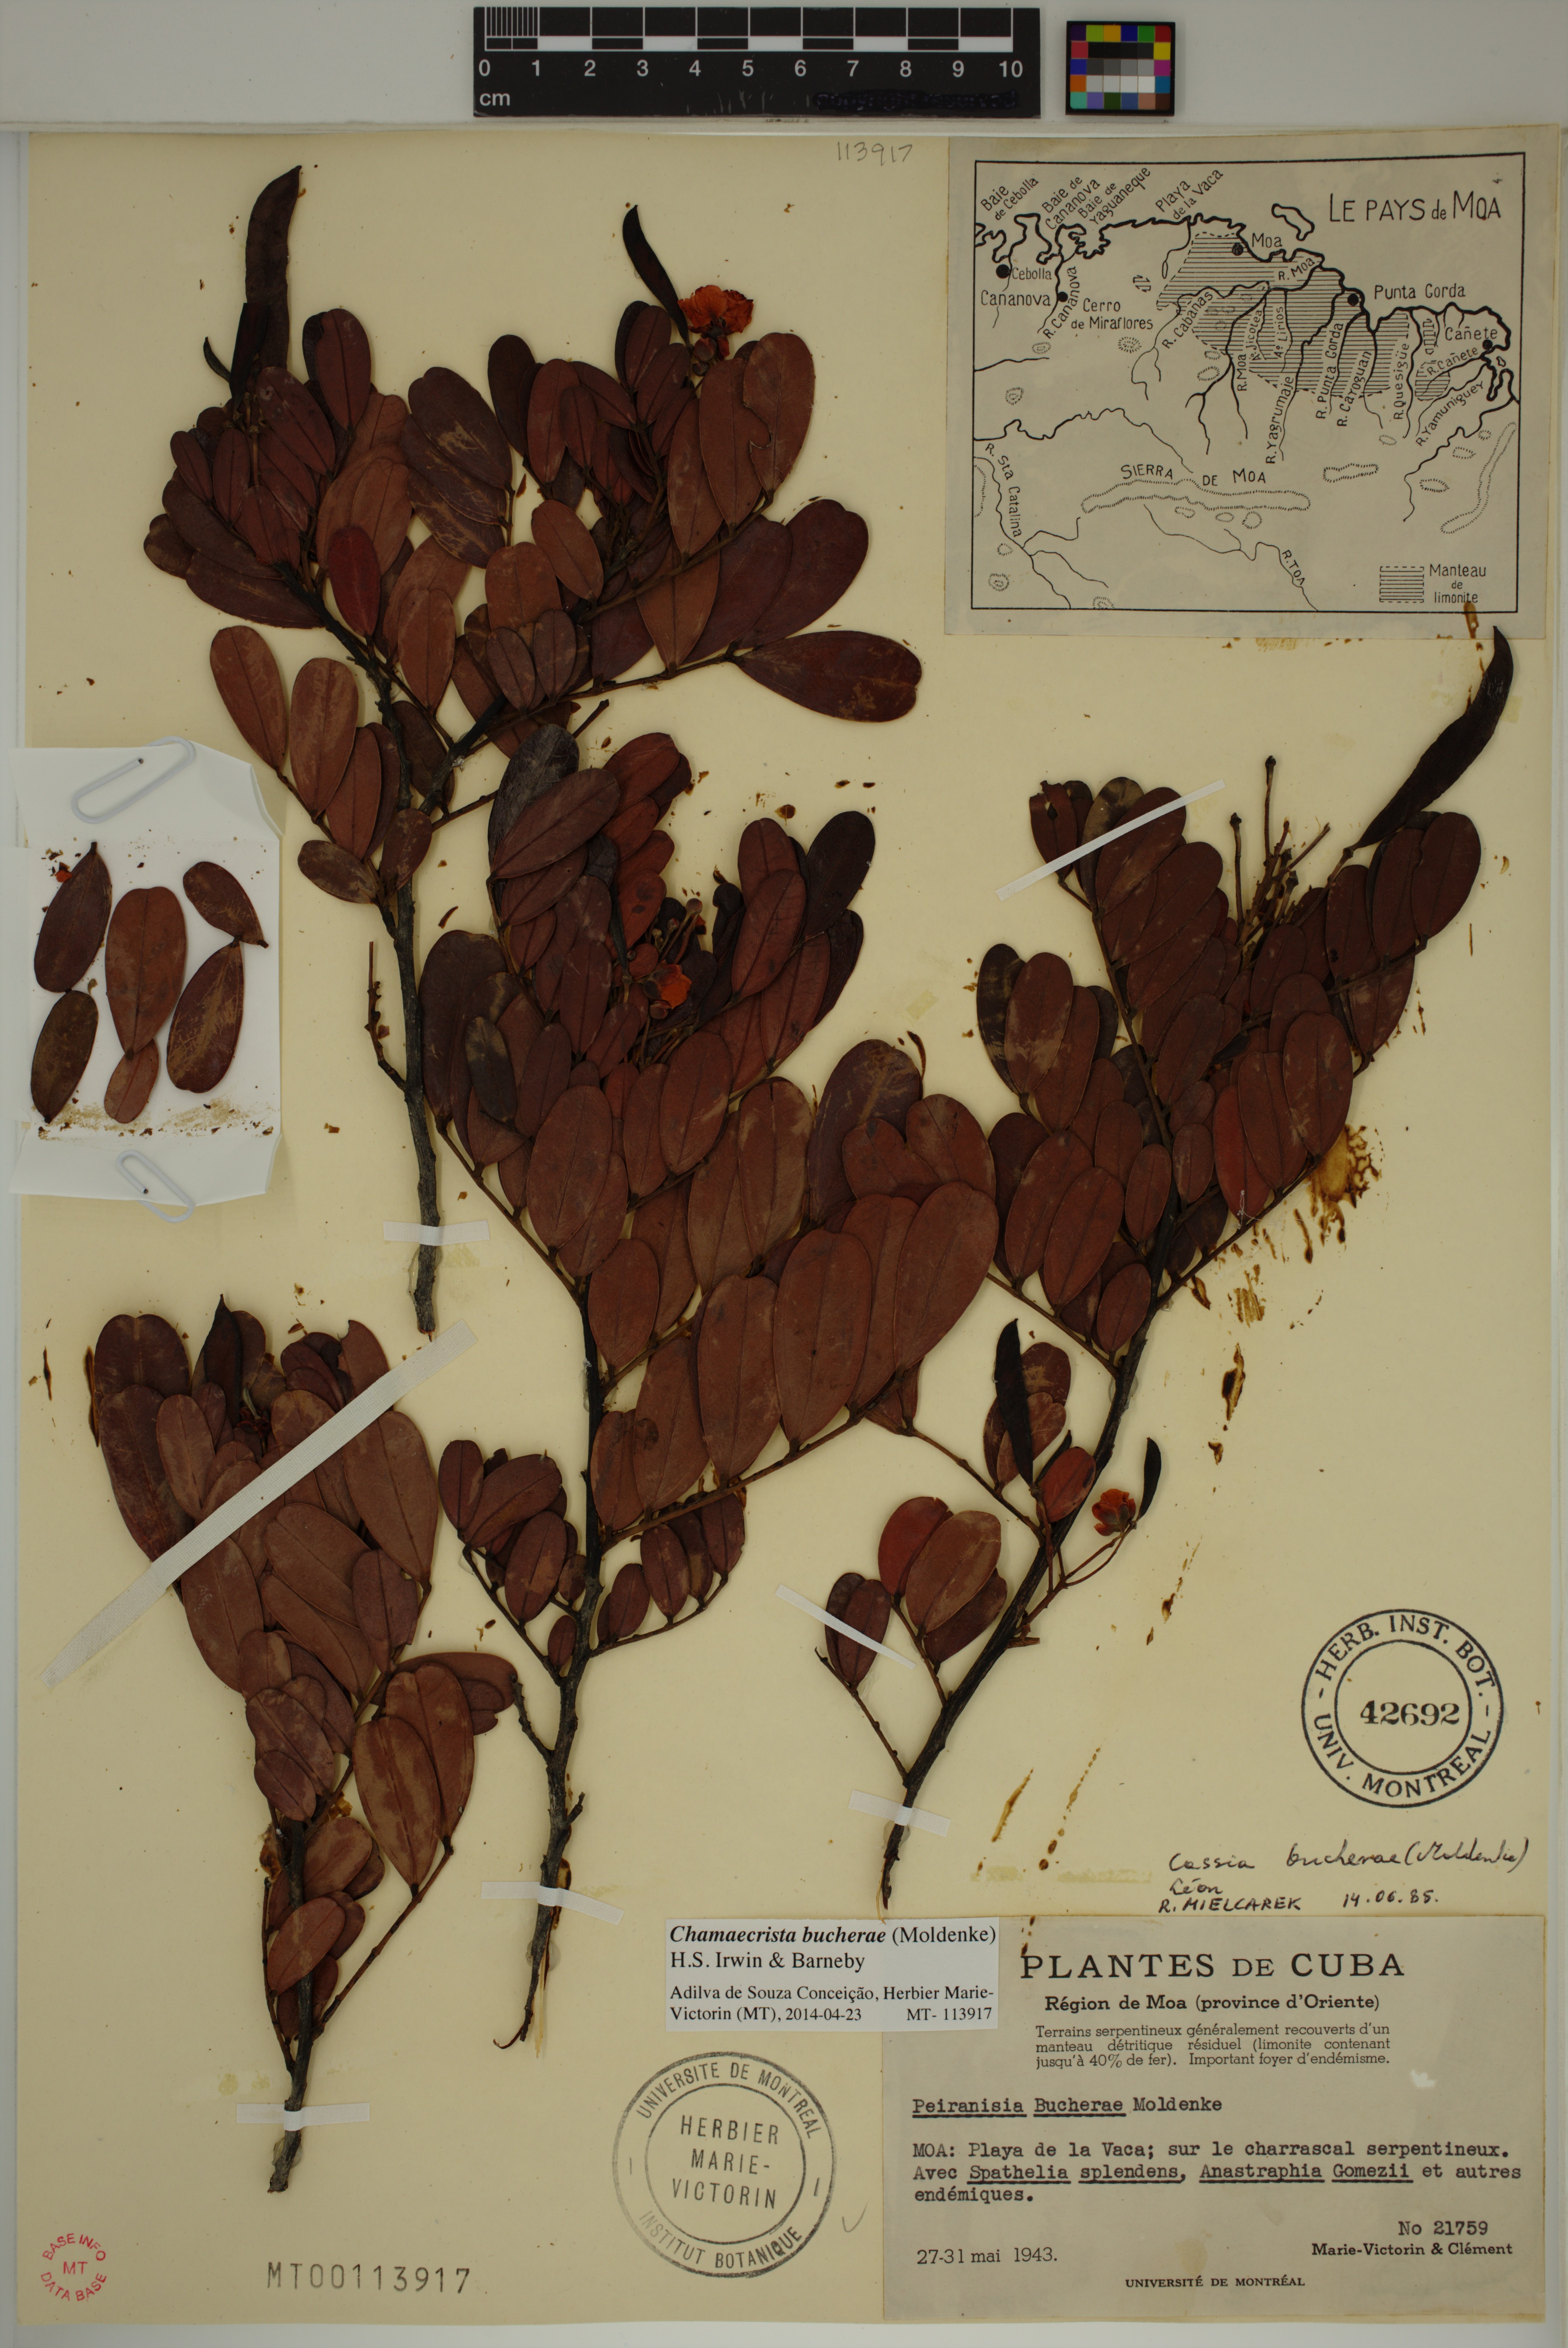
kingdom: Plantae
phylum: Tracheophyta
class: Magnoliopsida
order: Fabales
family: Fabaceae
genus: Chamaecrista
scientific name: Chamaecrista bucherae
